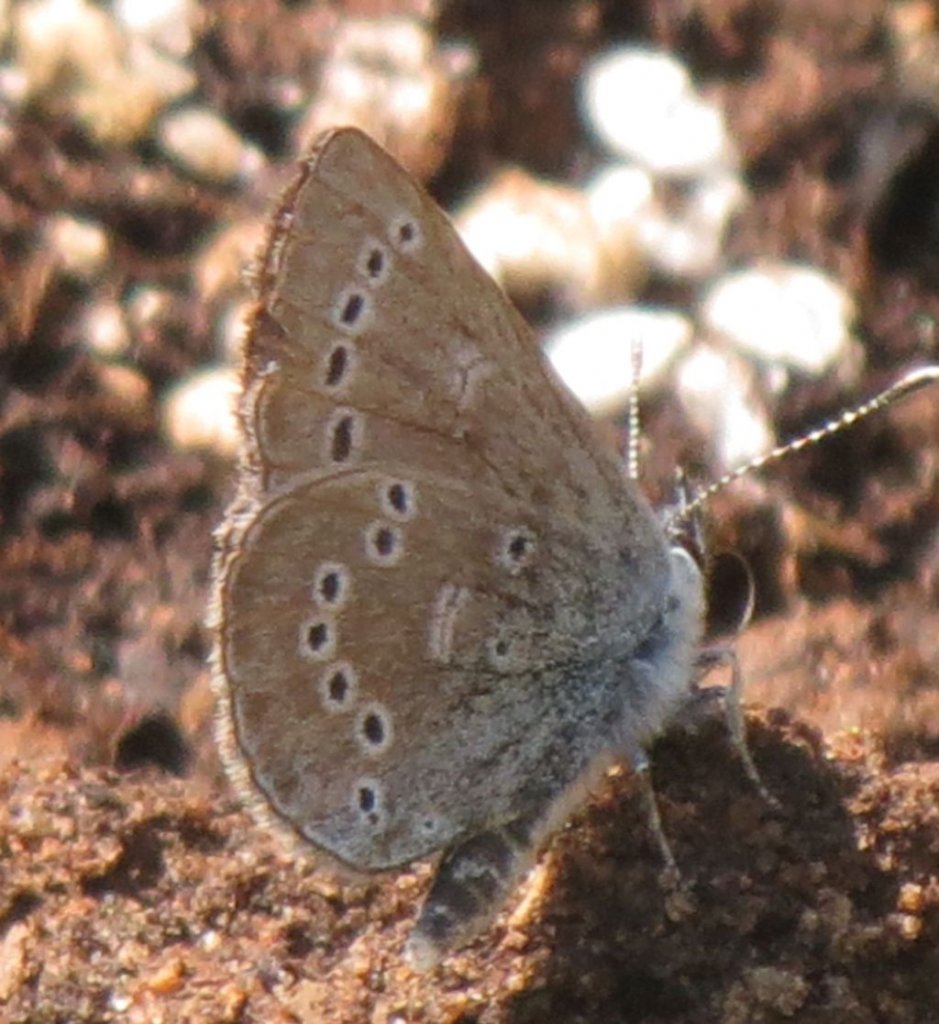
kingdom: Animalia
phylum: Arthropoda
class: Insecta
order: Lepidoptera
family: Lycaenidae
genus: Glaucopsyche
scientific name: Glaucopsyche lygdamus
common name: Silvery Blue
